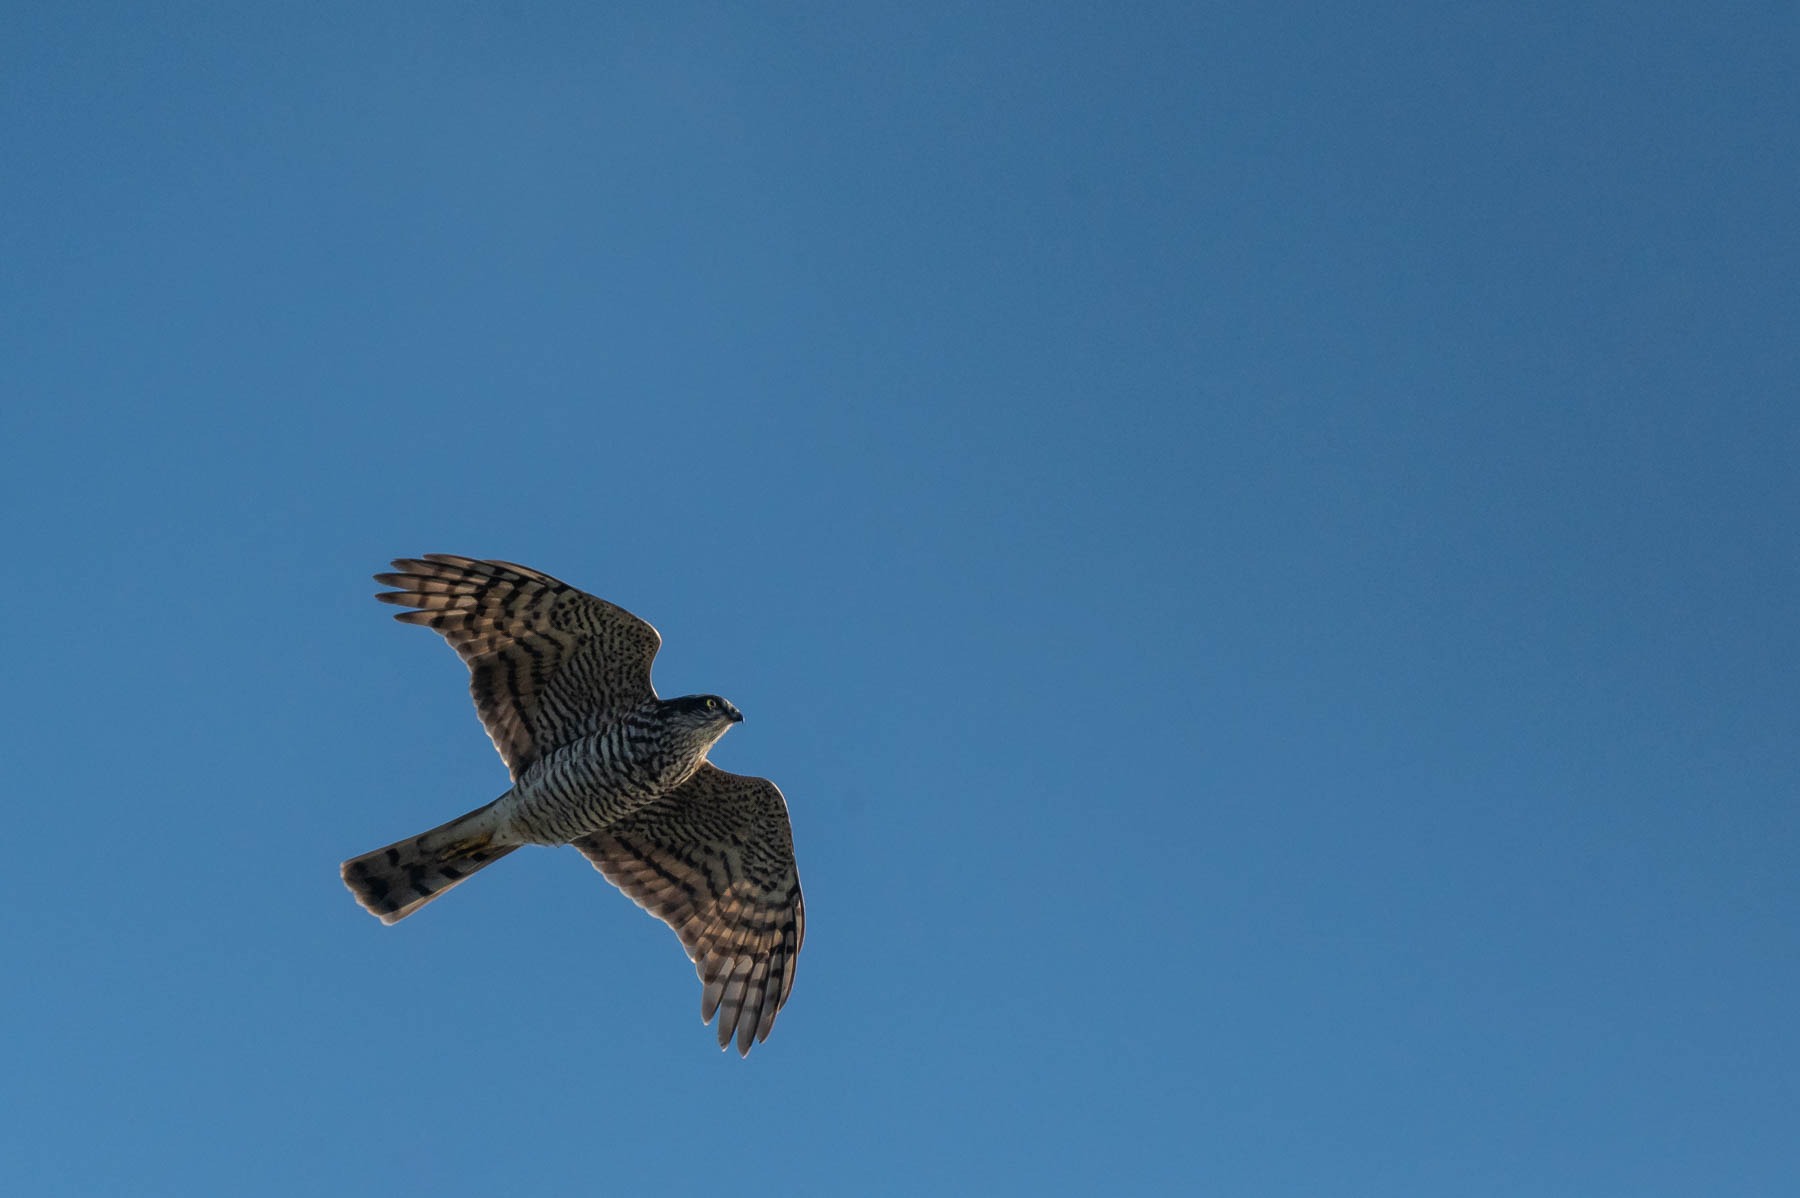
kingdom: Animalia
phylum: Chordata
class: Aves
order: Accipitriformes
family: Accipitridae
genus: Accipiter
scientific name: Accipiter nisus
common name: Spurvehøg
